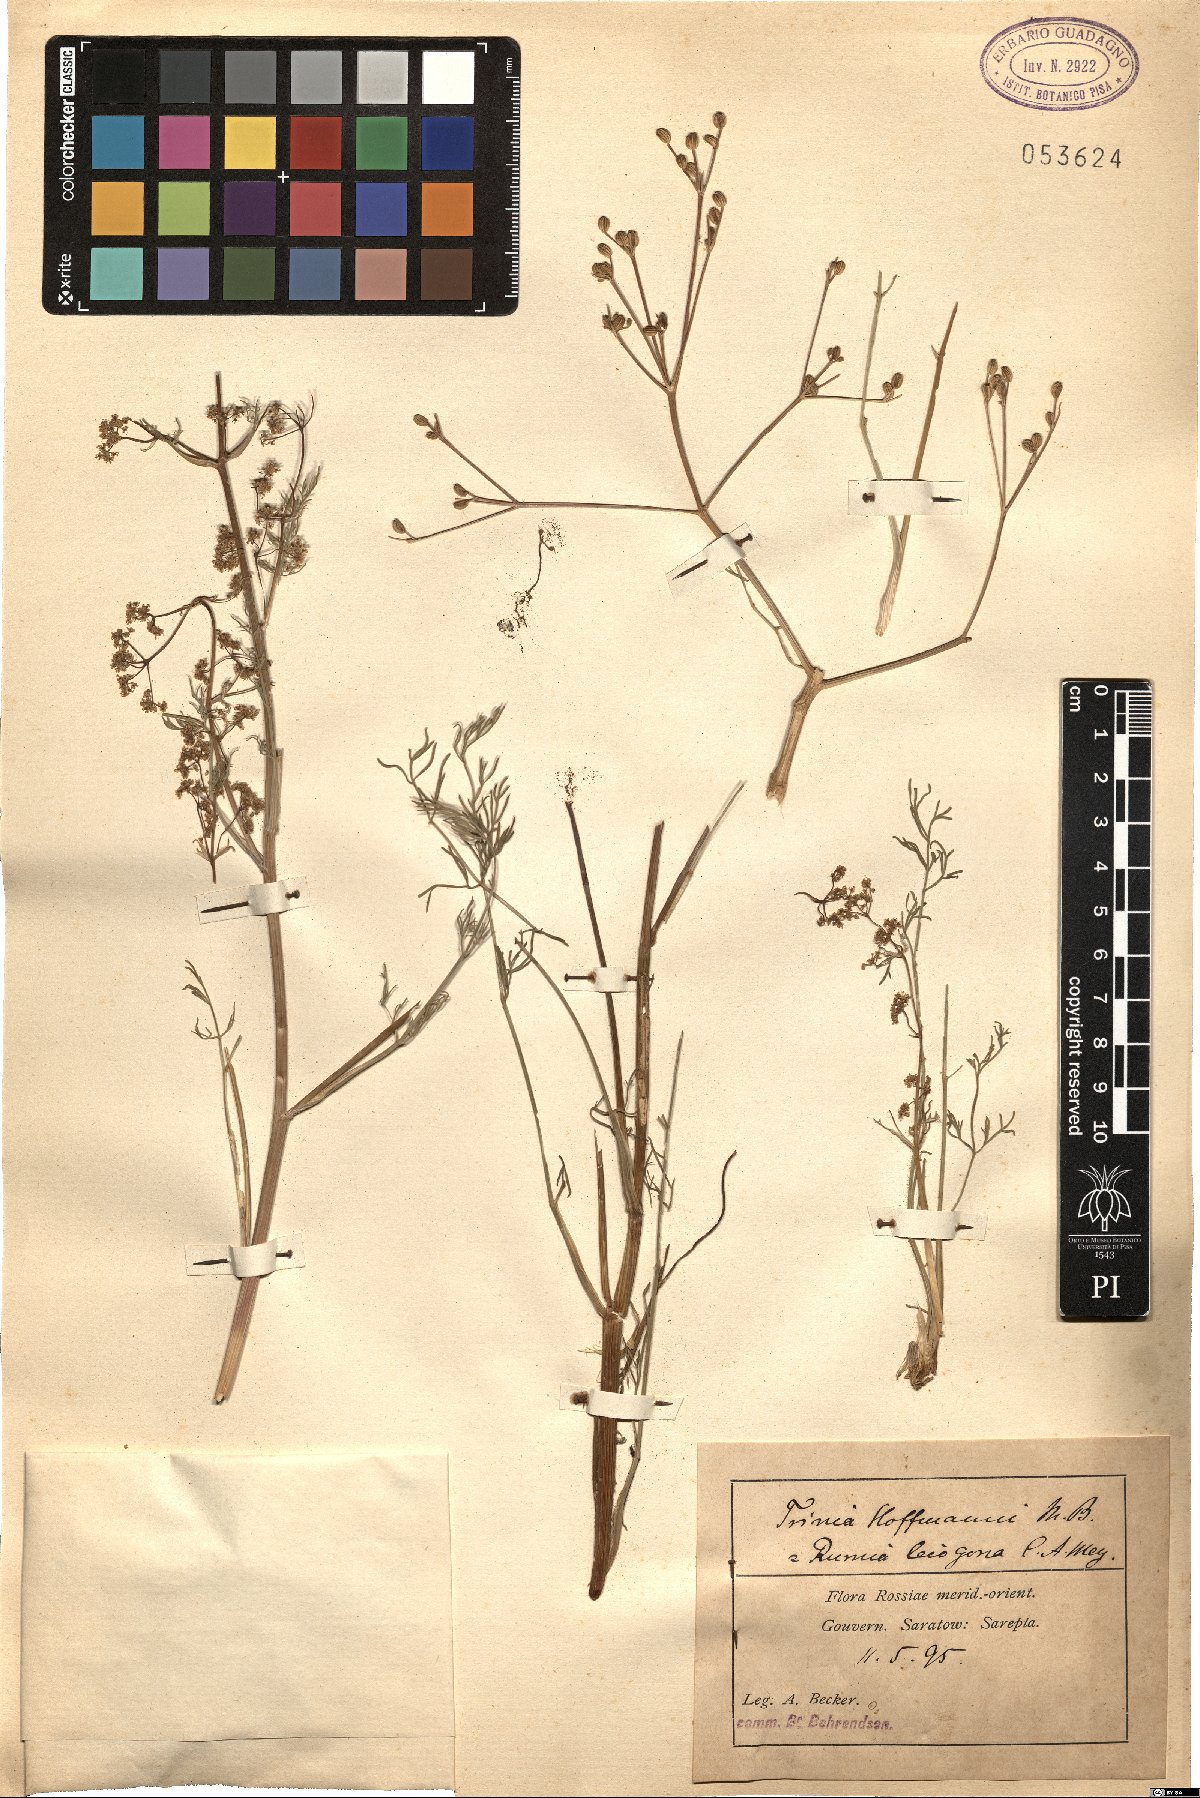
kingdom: Plantae
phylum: Tracheophyta
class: Magnoliopsida
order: Apiales
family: Apiaceae
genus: Trinia
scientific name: Trinia hispida
